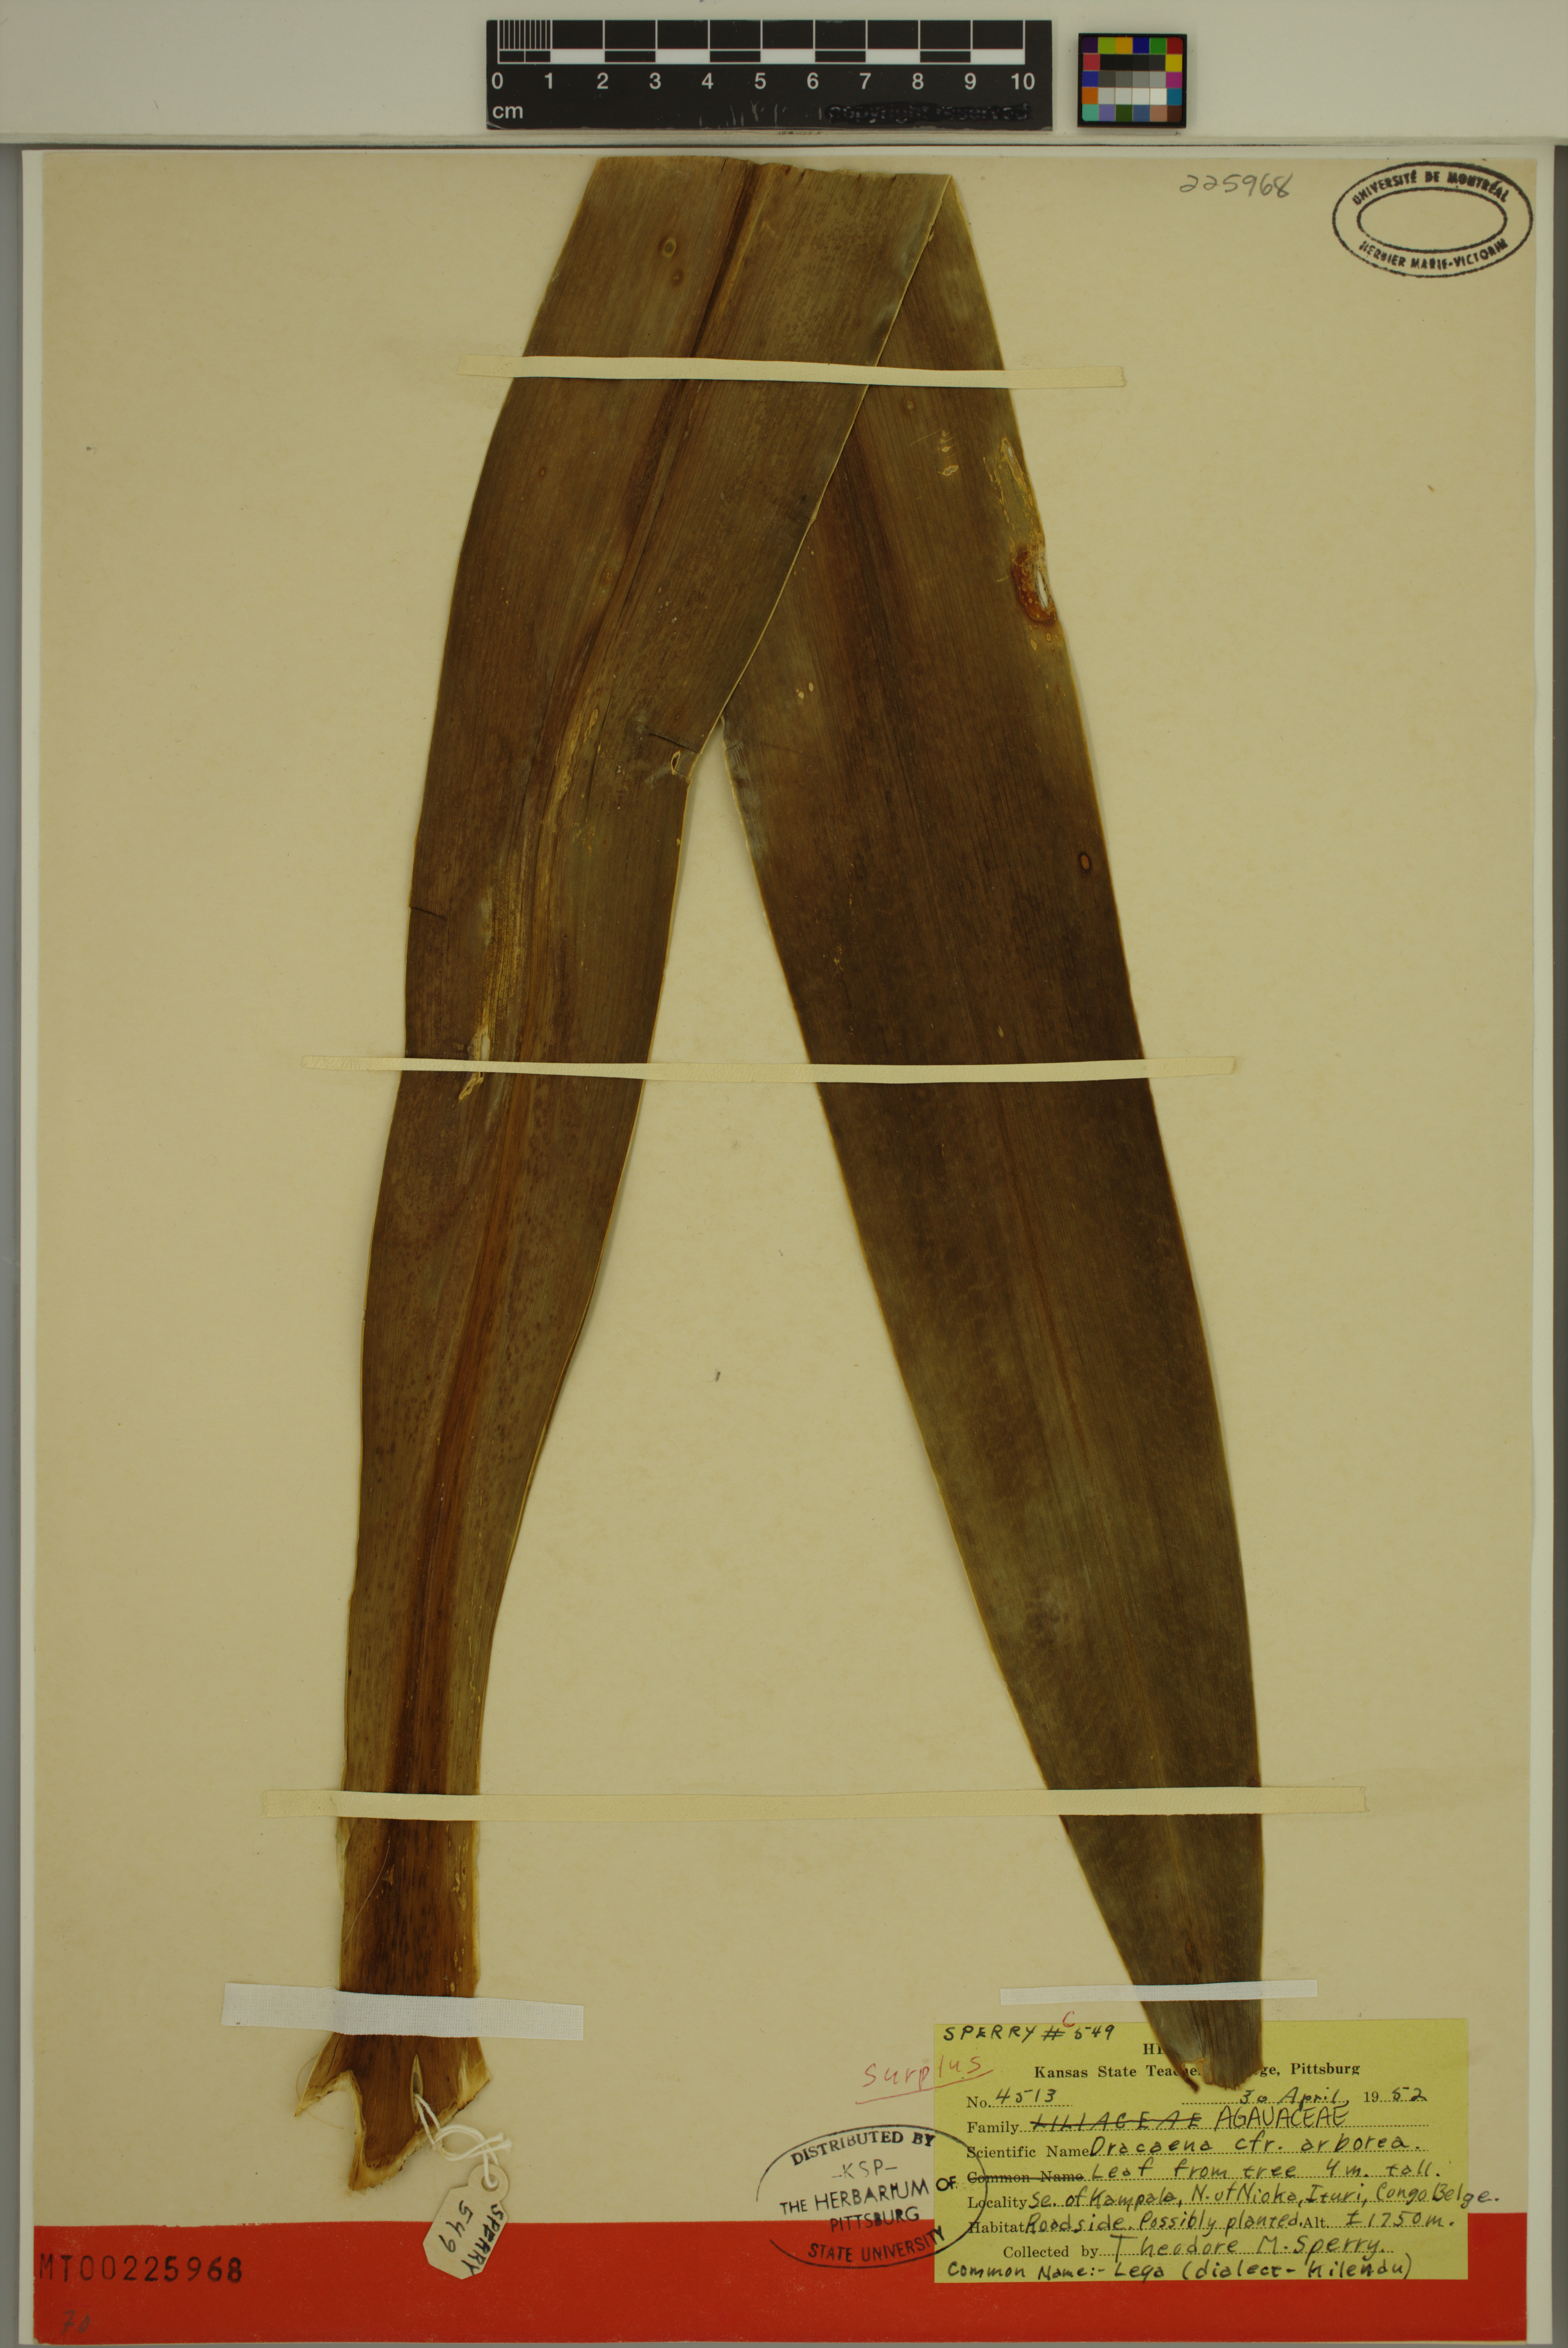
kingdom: Plantae
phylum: Tracheophyta
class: Liliopsida
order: Asparagales
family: Asparagaceae
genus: Dracaena
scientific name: Dracaena arborea
